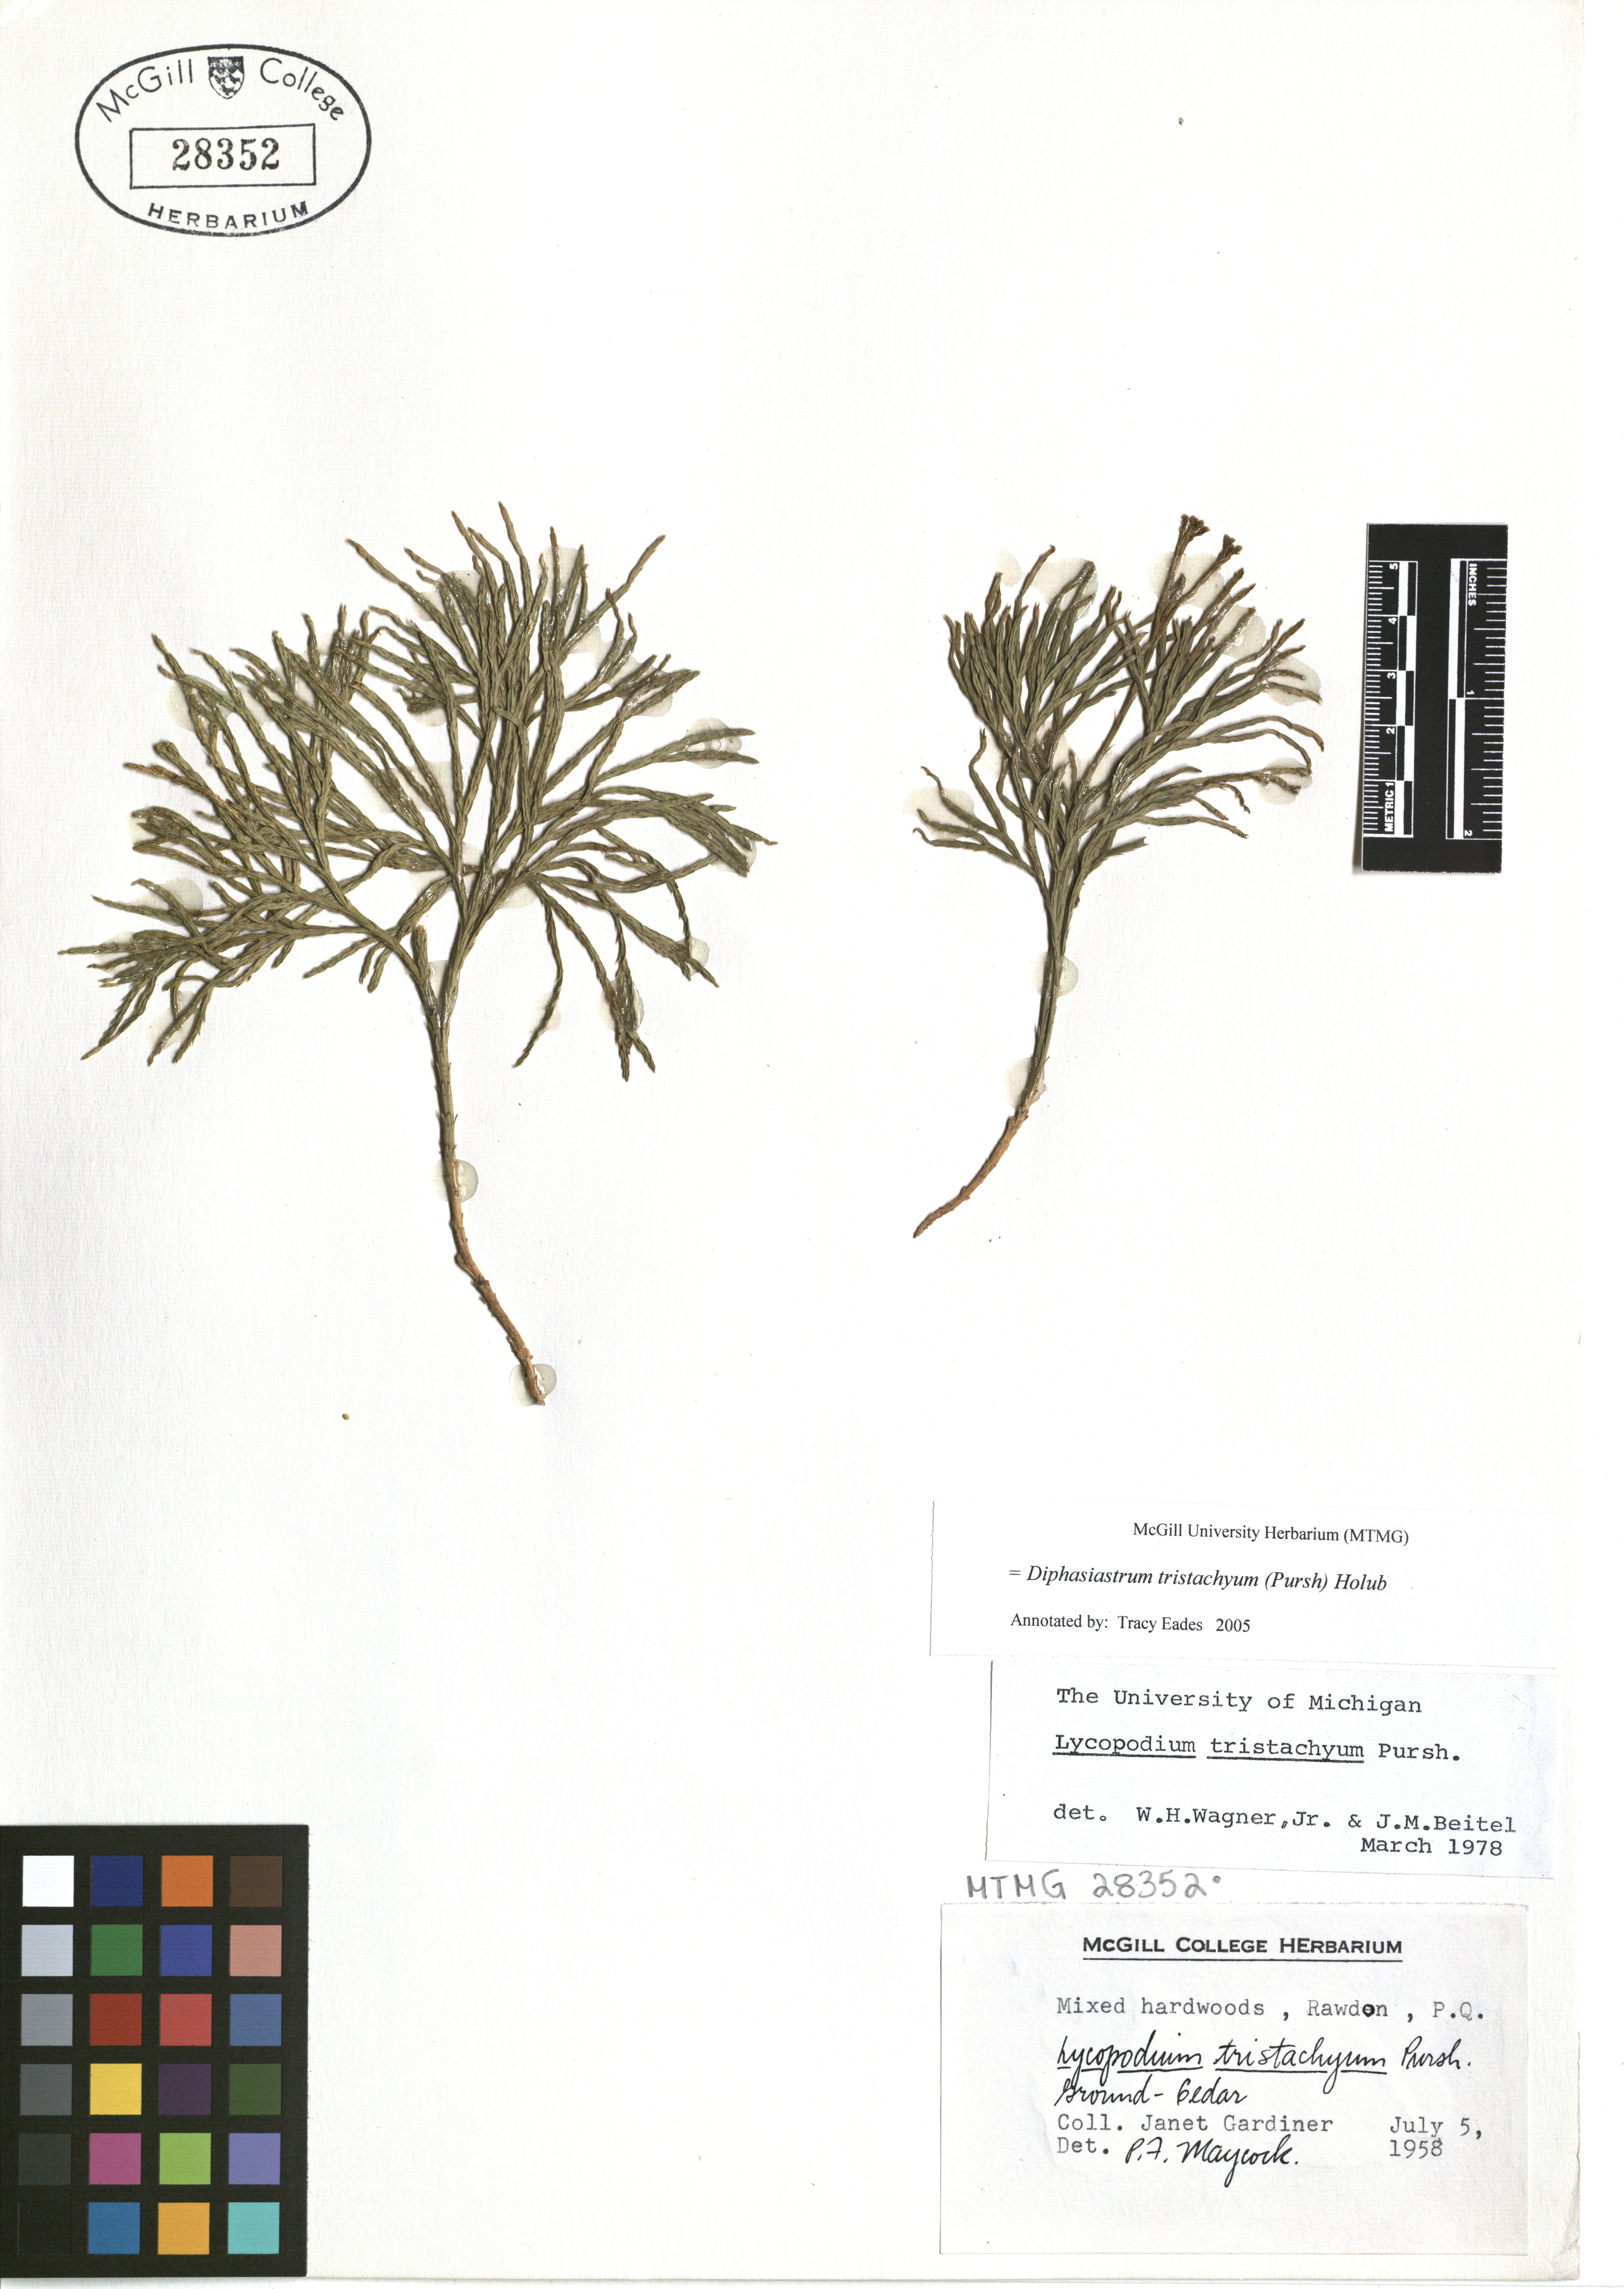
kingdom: Plantae
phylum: Tracheophyta
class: Lycopodiopsida
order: Lycopodiales
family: Lycopodiaceae
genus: Diphasiastrum
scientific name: Diphasiastrum tristachyum
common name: Blue ground-cedar
